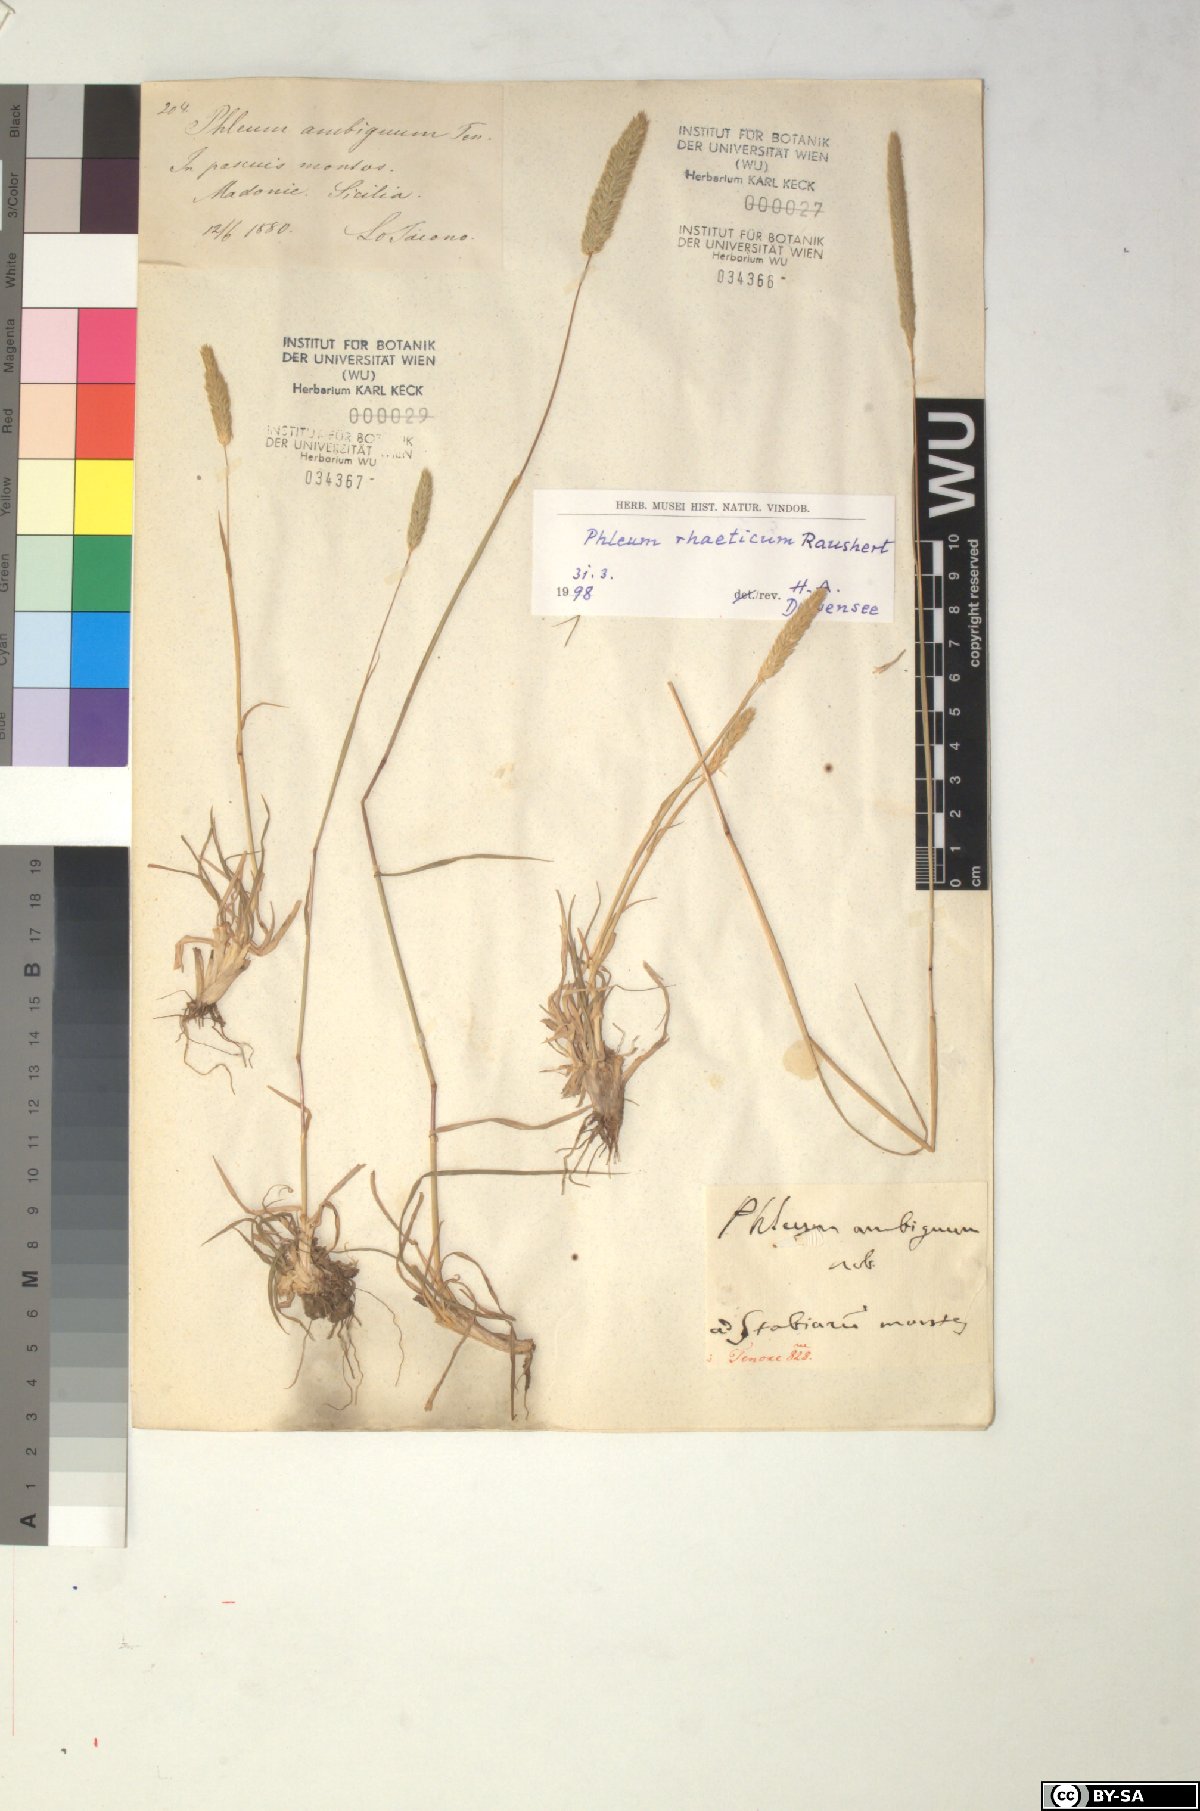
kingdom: Plantae
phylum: Tracheophyta
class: Liliopsida
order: Poales
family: Poaceae
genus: Phleum
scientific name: Phleum alpinum
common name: Alpine cat's-tail
